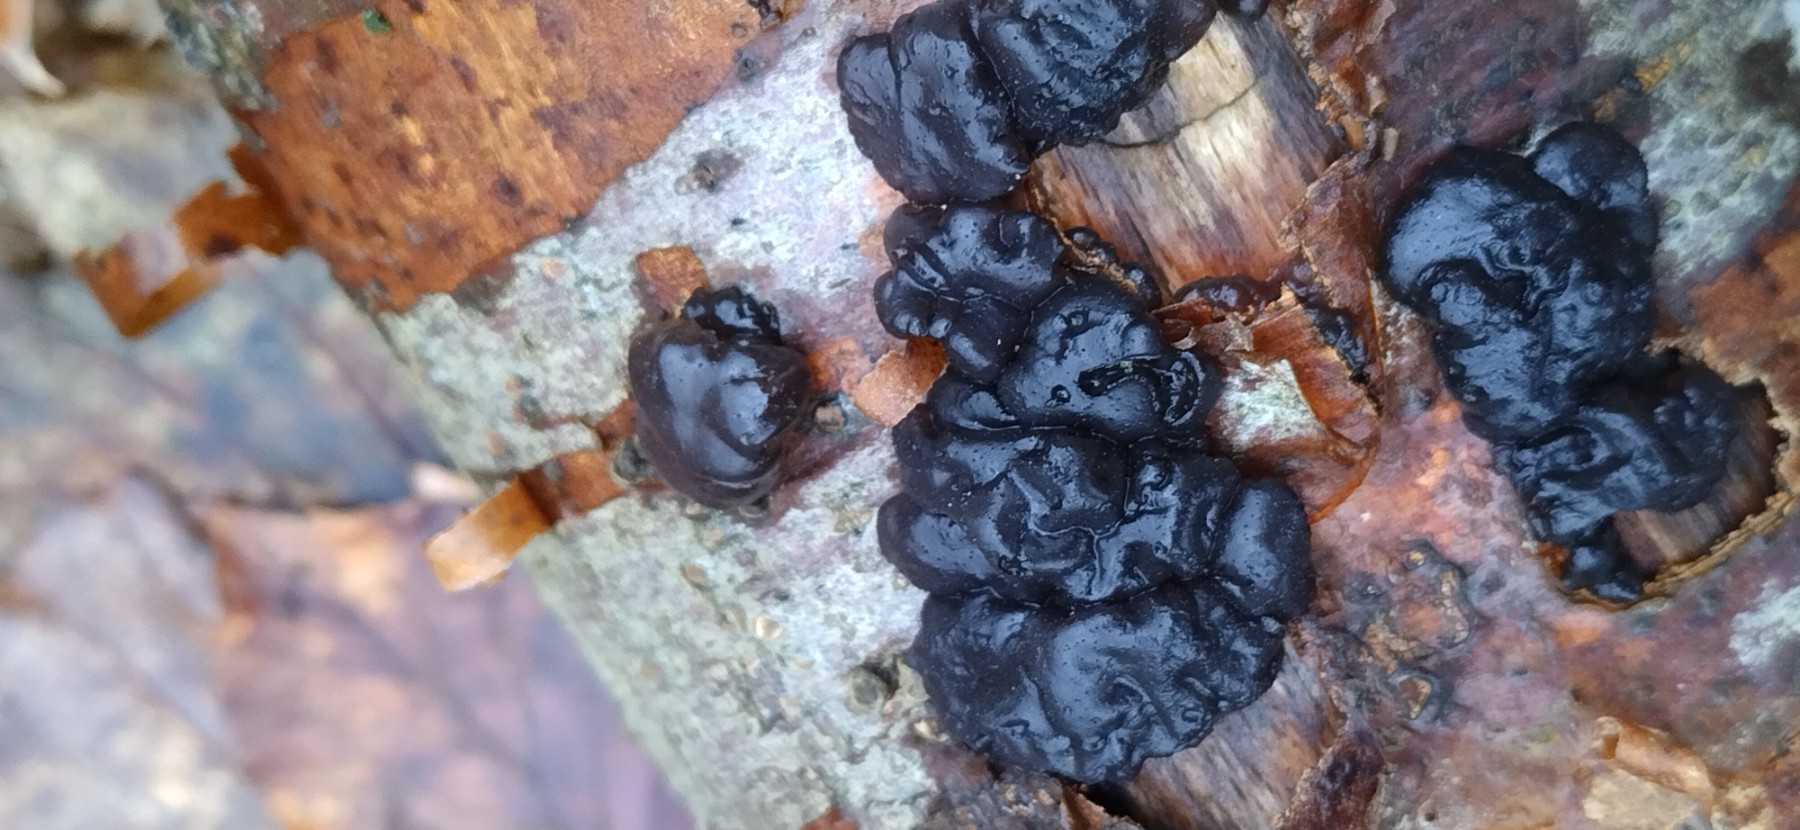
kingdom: Fungi
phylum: Basidiomycota
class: Agaricomycetes
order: Auriculariales
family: Auriculariaceae
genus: Exidia
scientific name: Exidia nigricans
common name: almindelig bævretop
